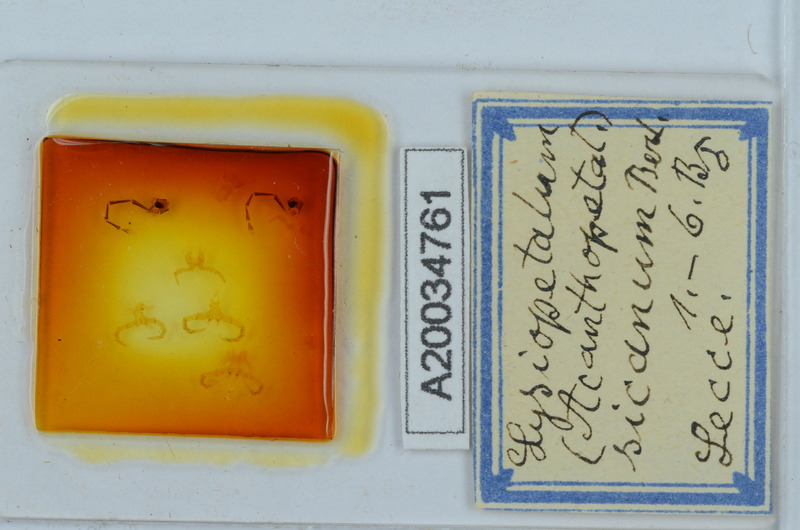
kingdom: Animalia
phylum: Arthropoda
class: Diplopoda
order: Callipodida
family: Schizopetalidae
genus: Acanthopetalum
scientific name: Acanthopetalum richii
